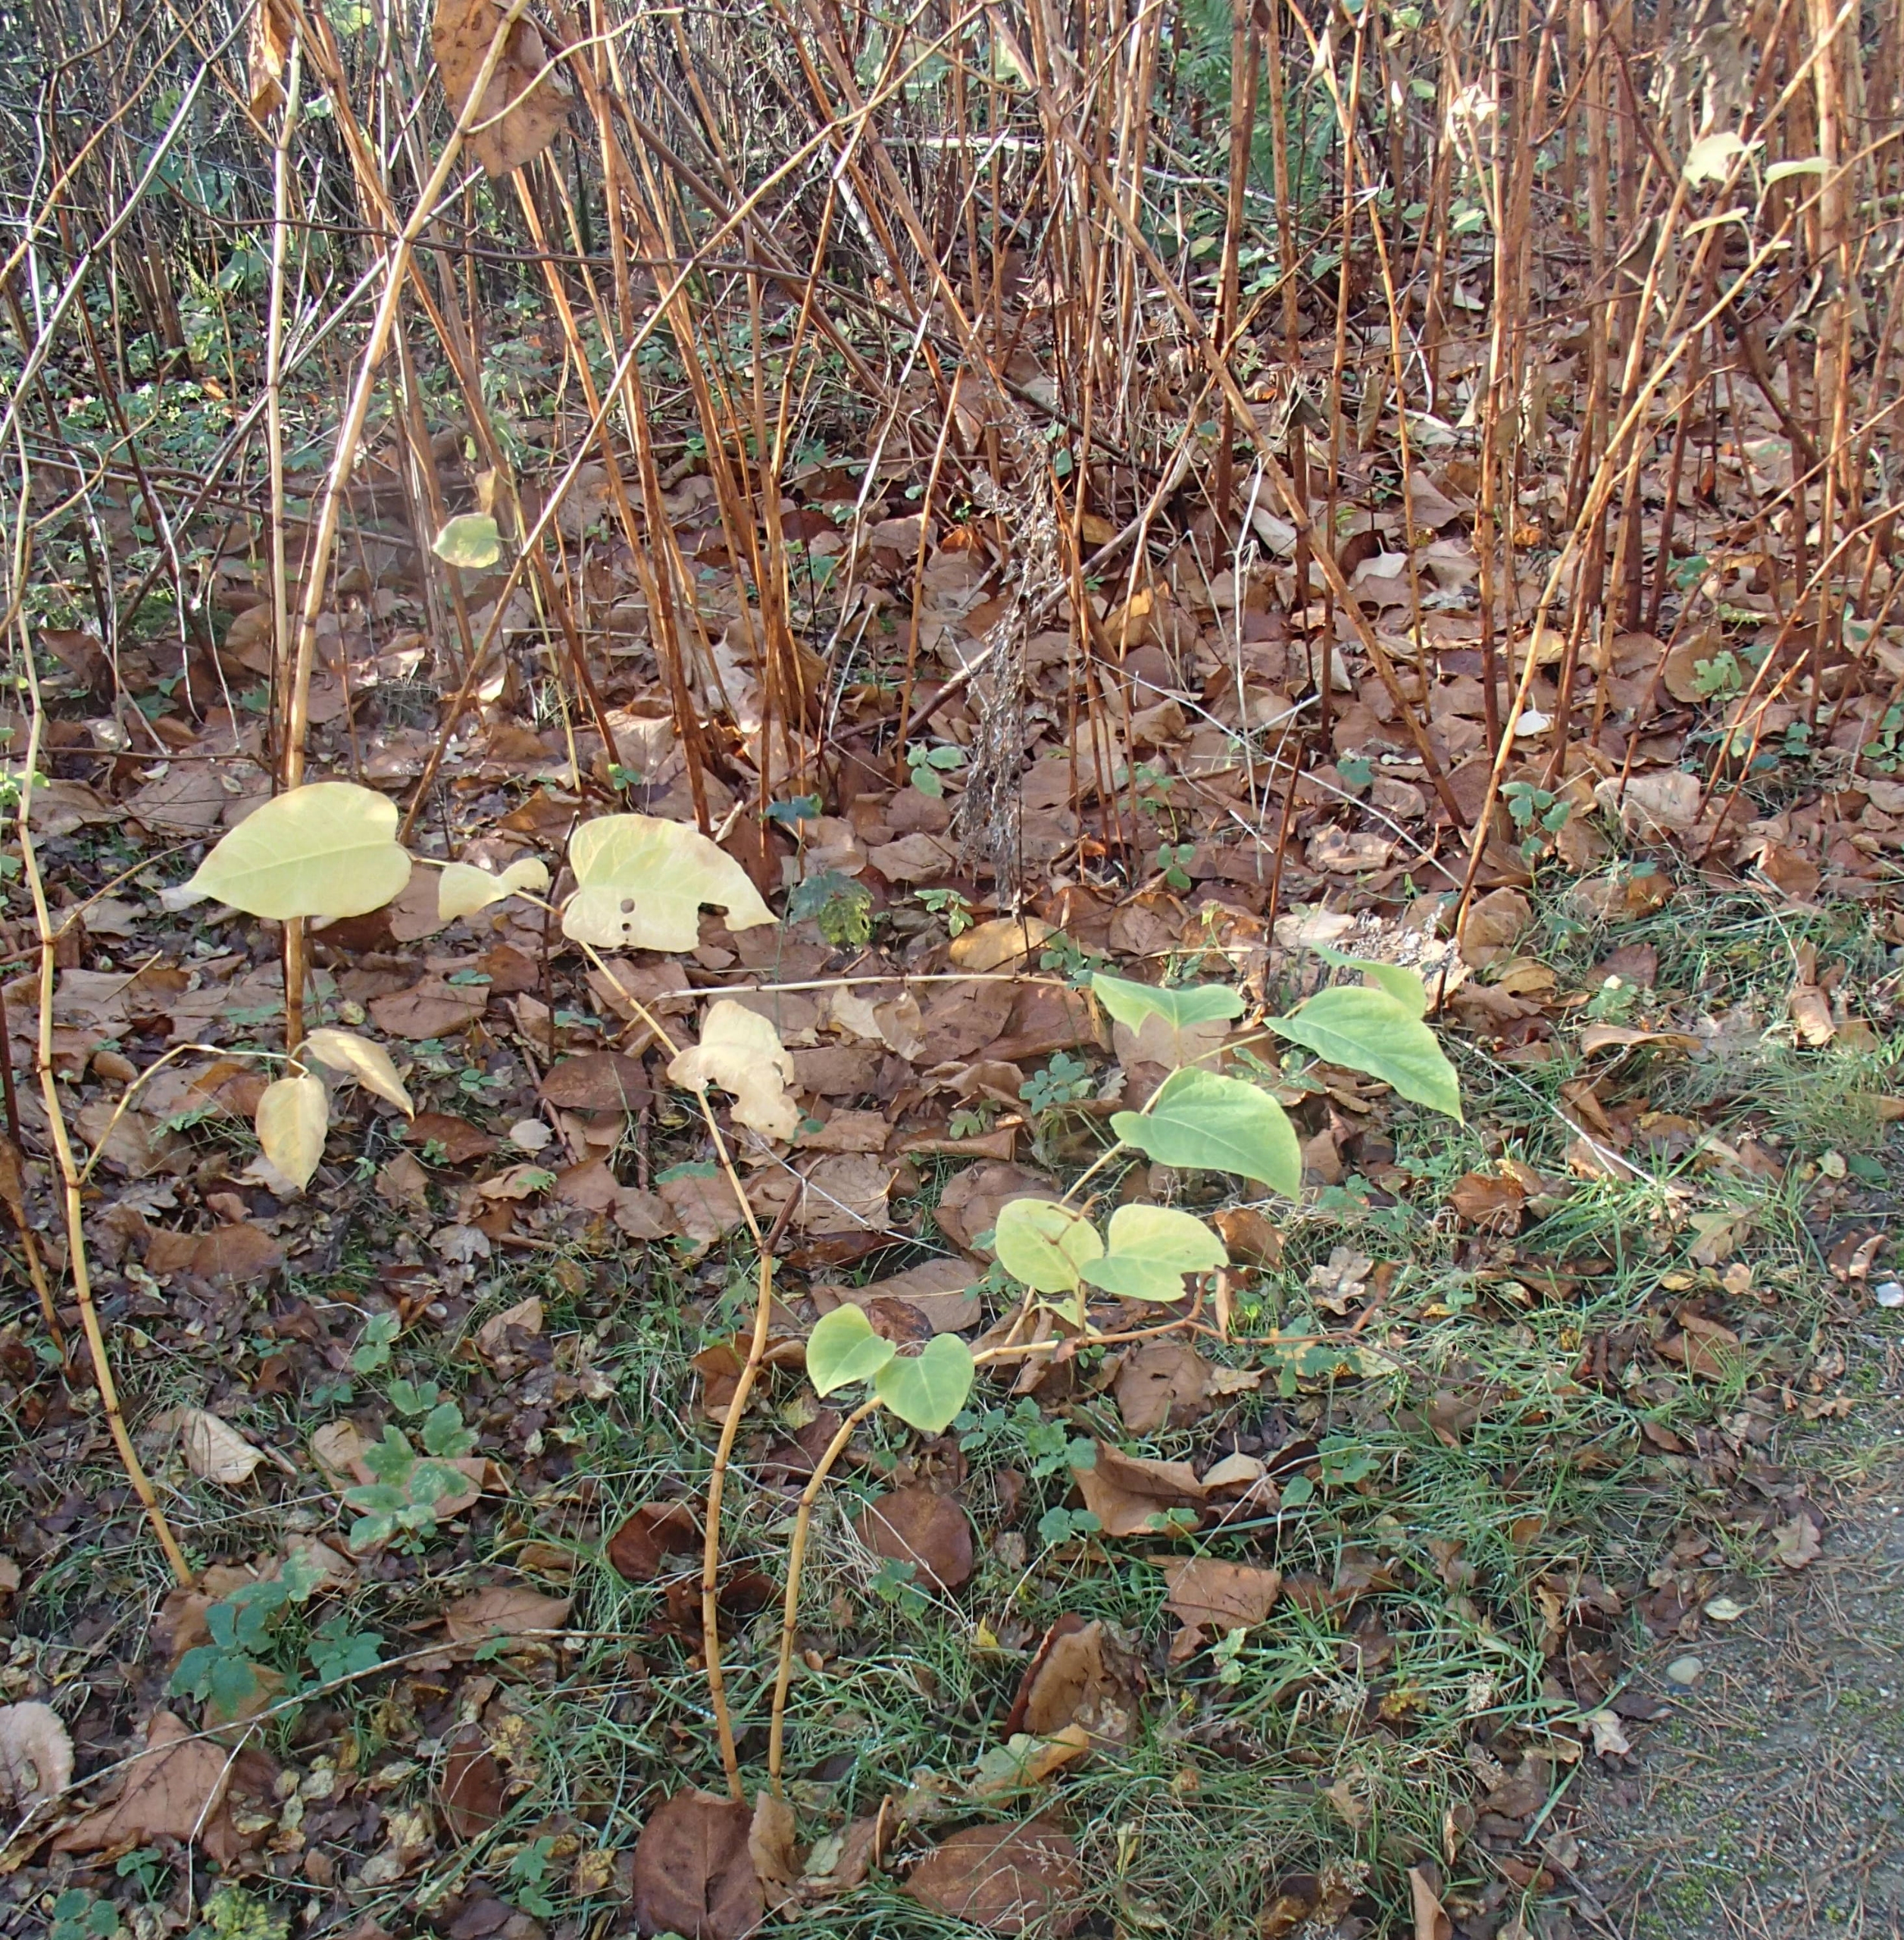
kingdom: Plantae
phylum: Tracheophyta
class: Magnoliopsida
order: Caryophyllales
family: Polygonaceae
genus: Reynoutria
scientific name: Reynoutria japonica
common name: Japan-pileurt
